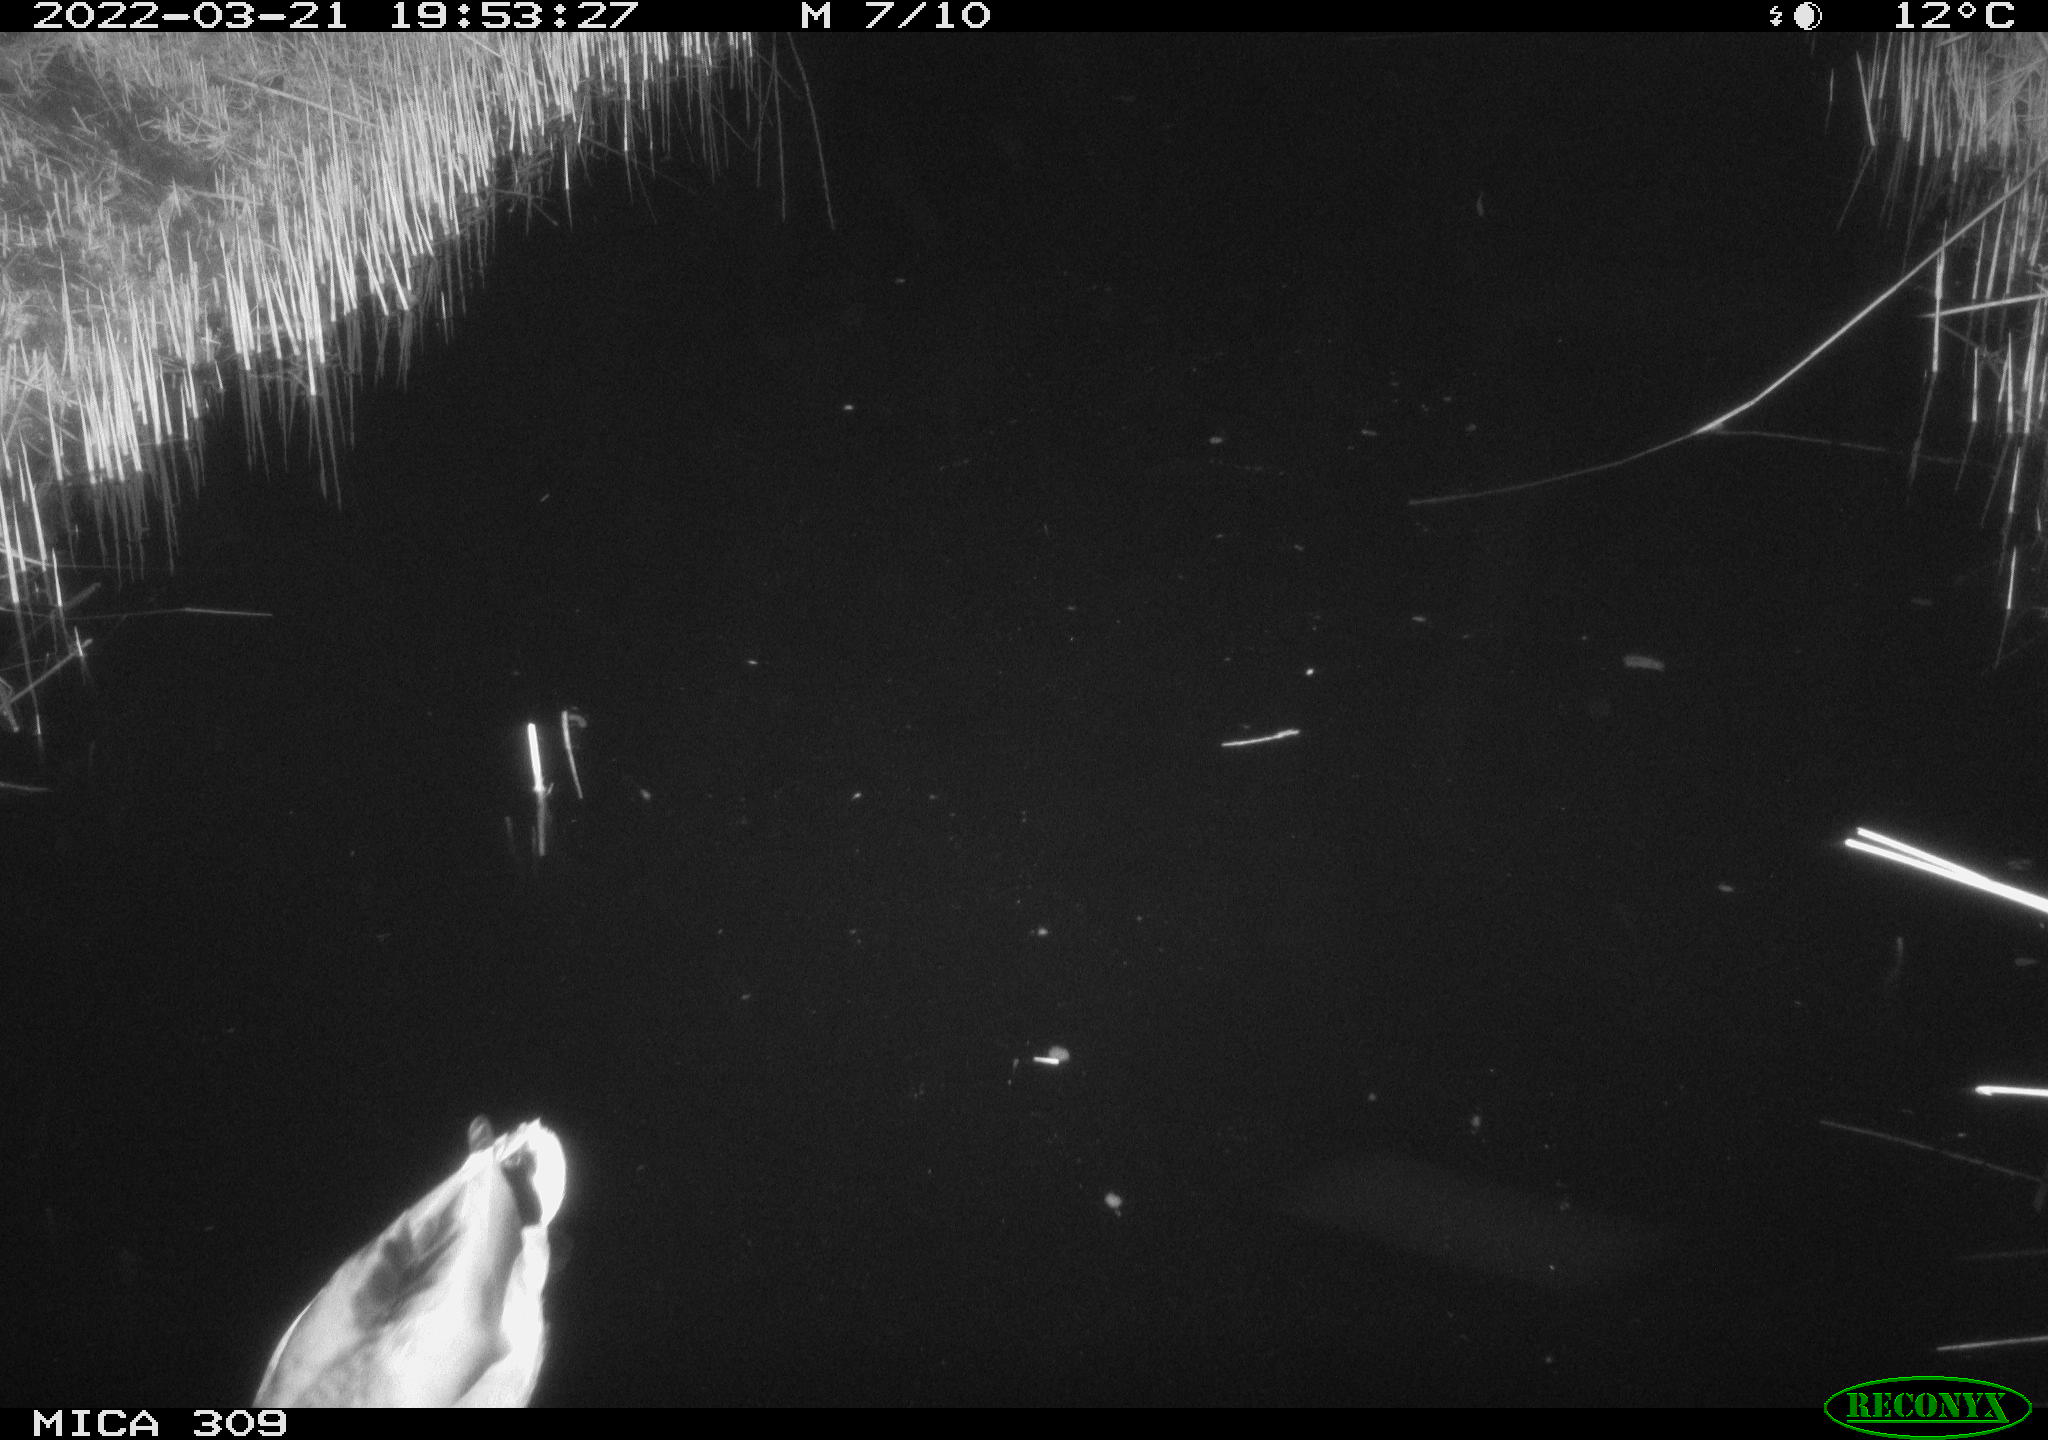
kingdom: Animalia
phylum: Chordata
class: Aves
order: Anseriformes
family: Anatidae
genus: Anas
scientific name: Anas platyrhynchos
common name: Mallard
